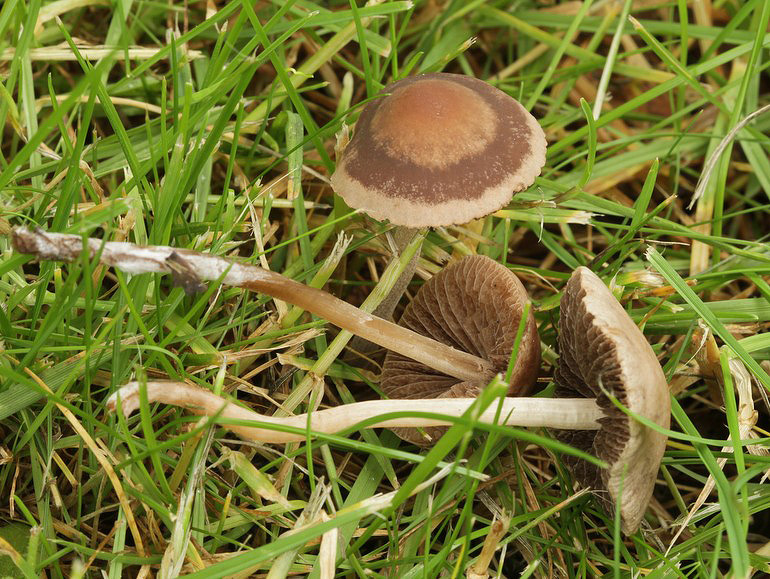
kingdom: Fungi
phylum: Basidiomycota
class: Agaricomycetes
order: Agaricales
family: Bolbitiaceae
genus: Panaeolina
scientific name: Panaeolina foenisecii
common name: høslætsvamp
